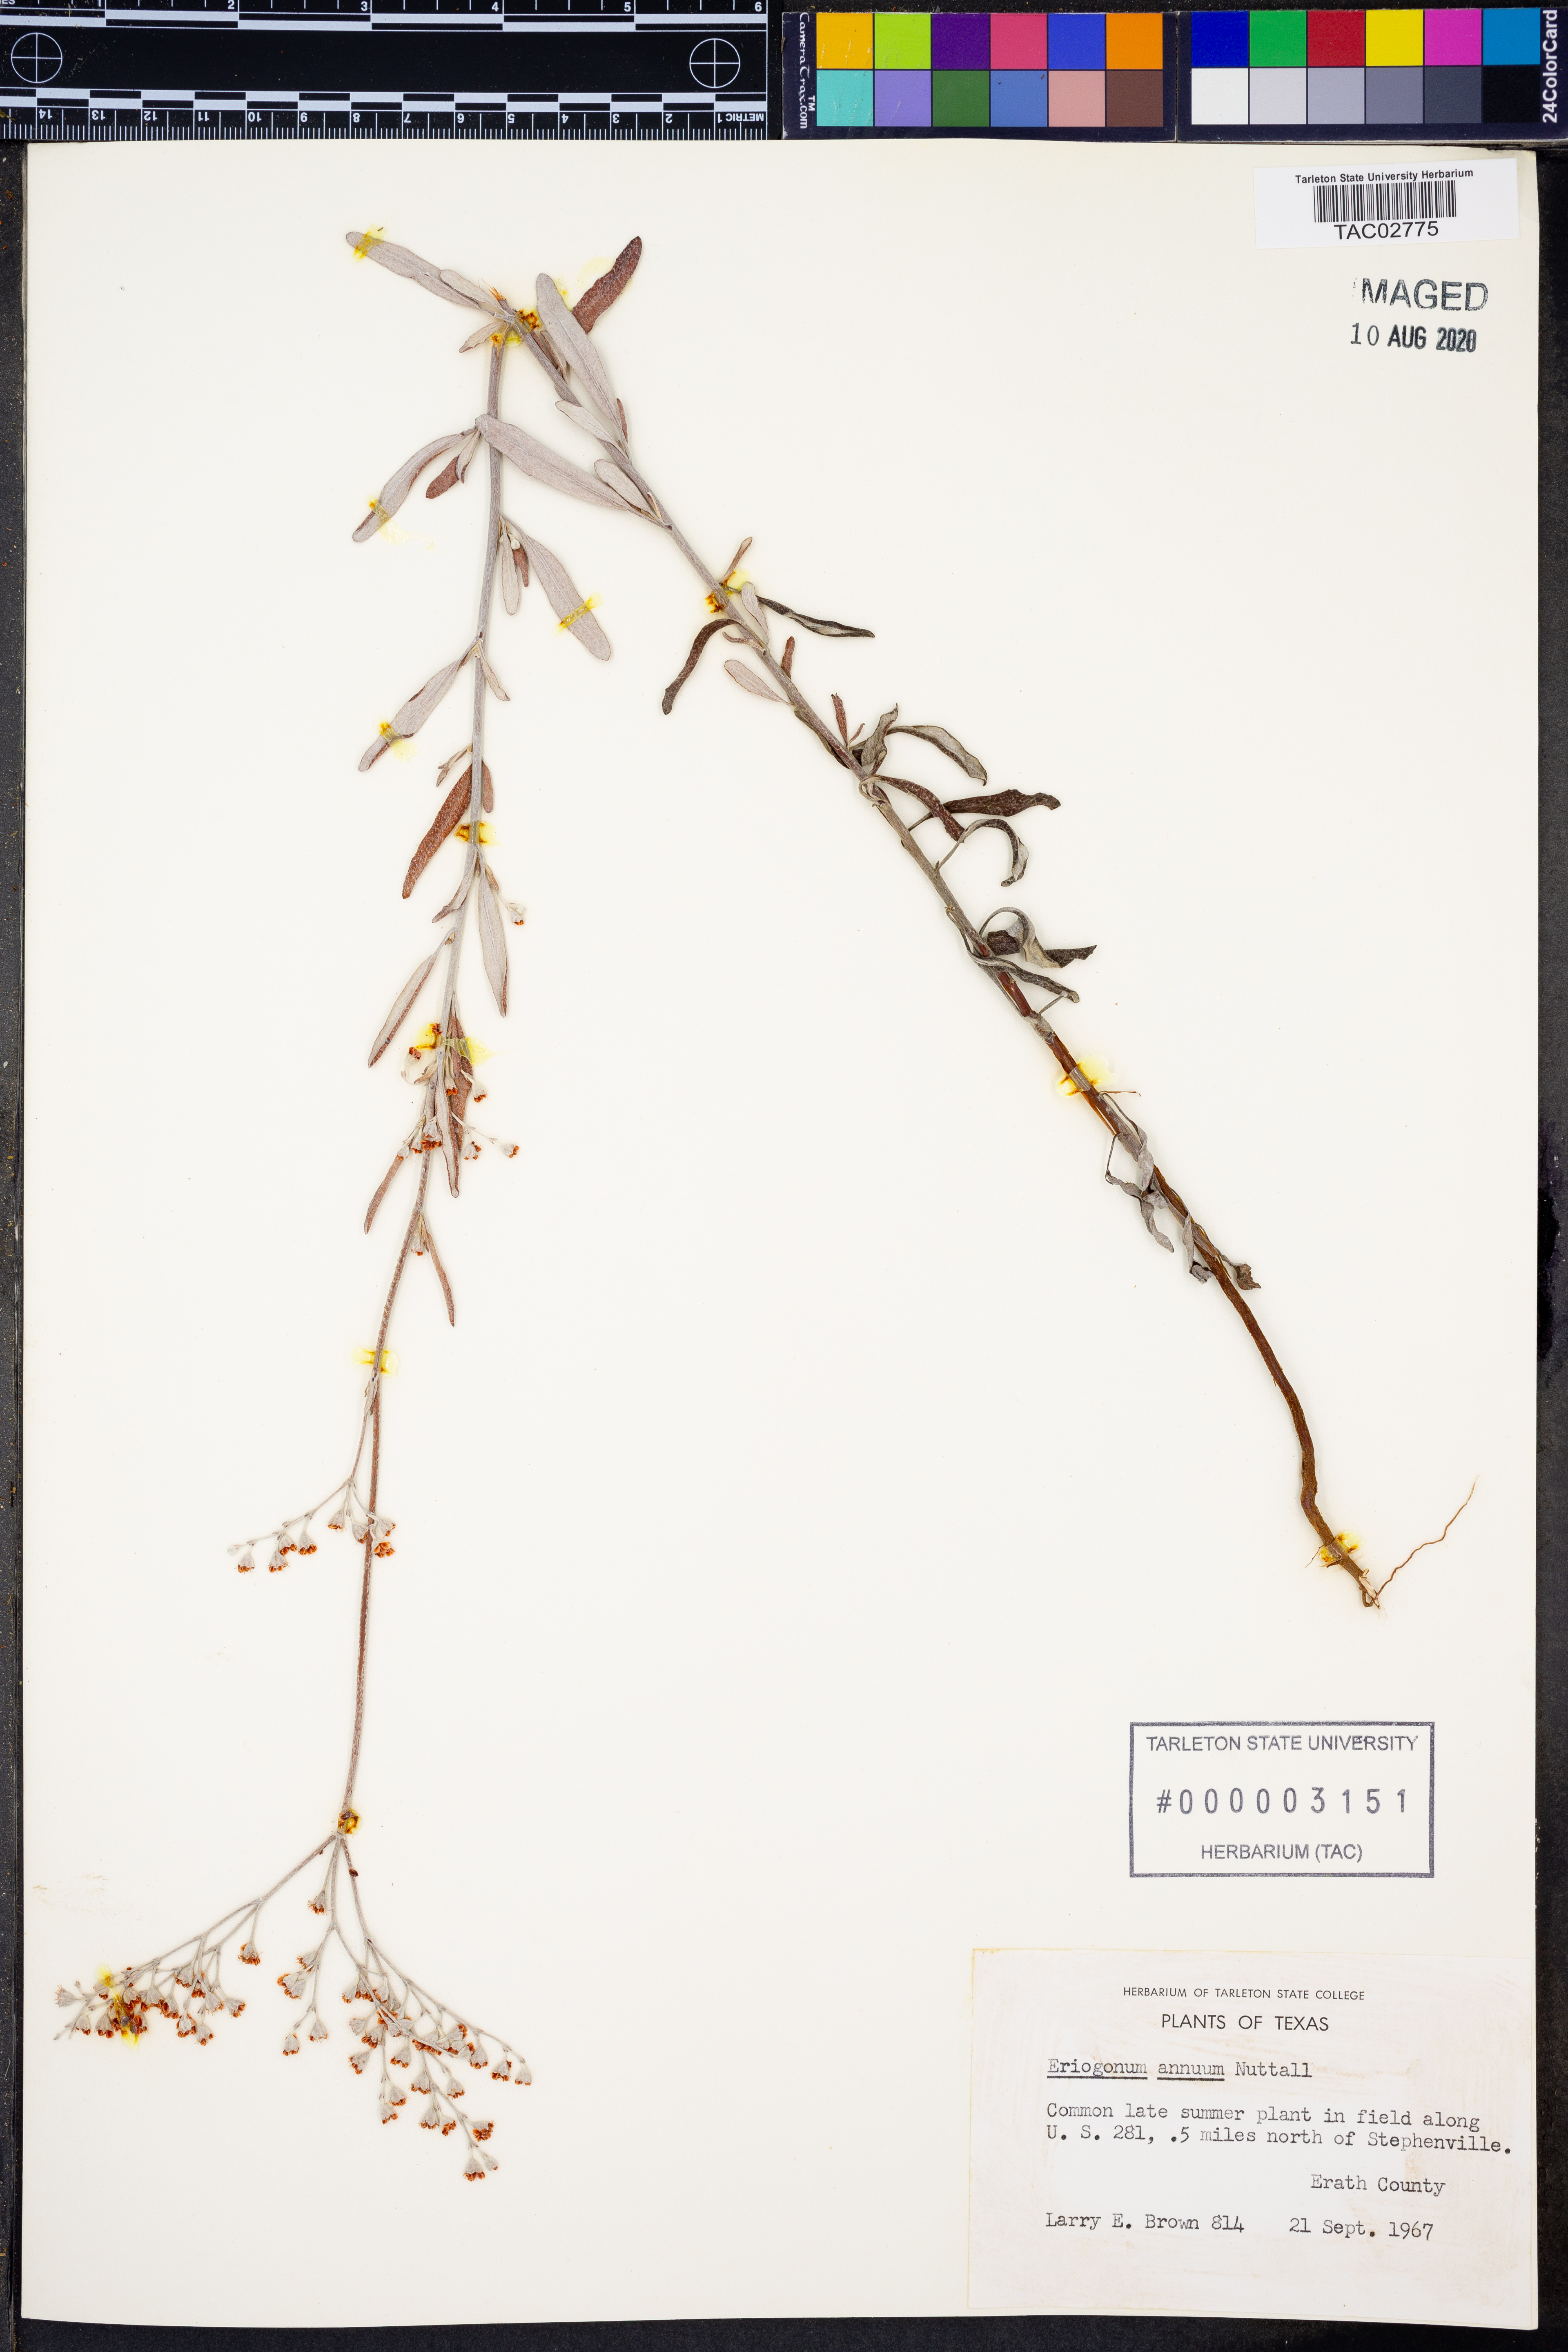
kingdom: Plantae
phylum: Tracheophyta
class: Magnoliopsida
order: Caryophyllales
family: Polygonaceae
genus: Eriogonum
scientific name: Eriogonum annuum
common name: Annual wild buckwheat
